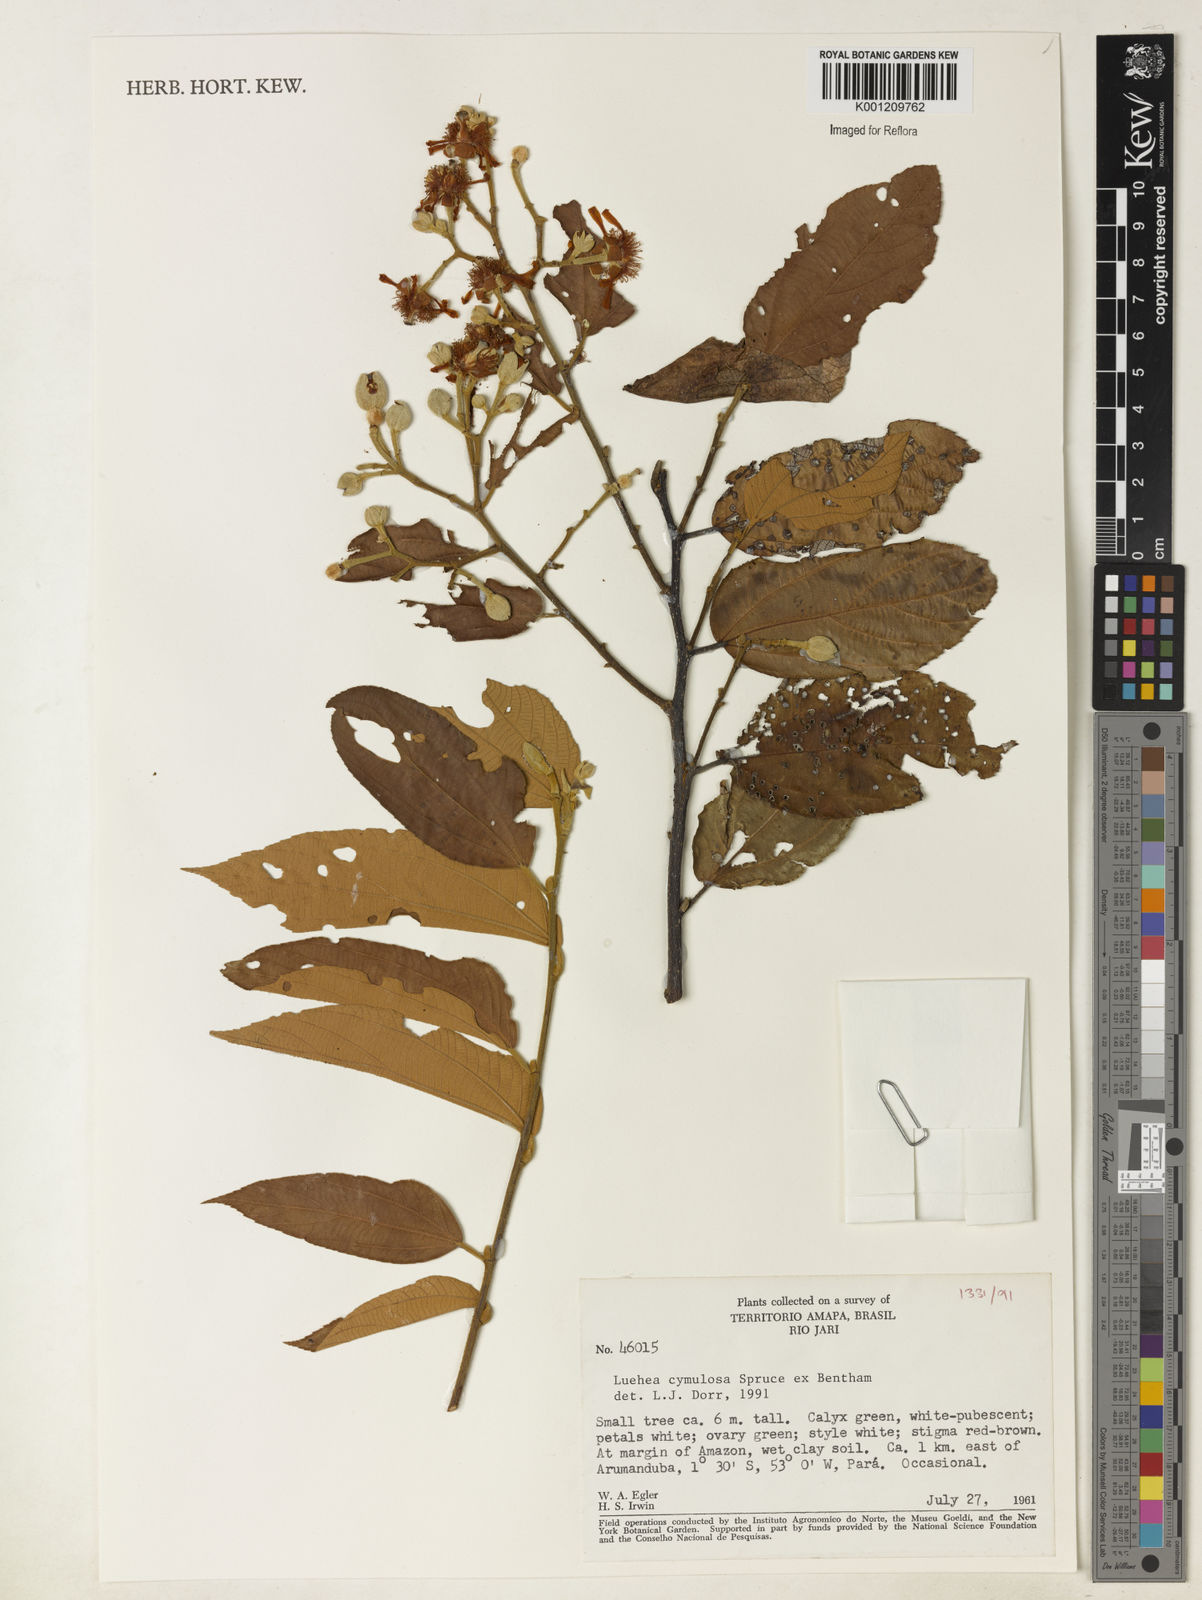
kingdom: Plantae
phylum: Tracheophyta
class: Magnoliopsida
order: Malvales
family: Malvaceae
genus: Luehea
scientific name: Luehea cymulosa
